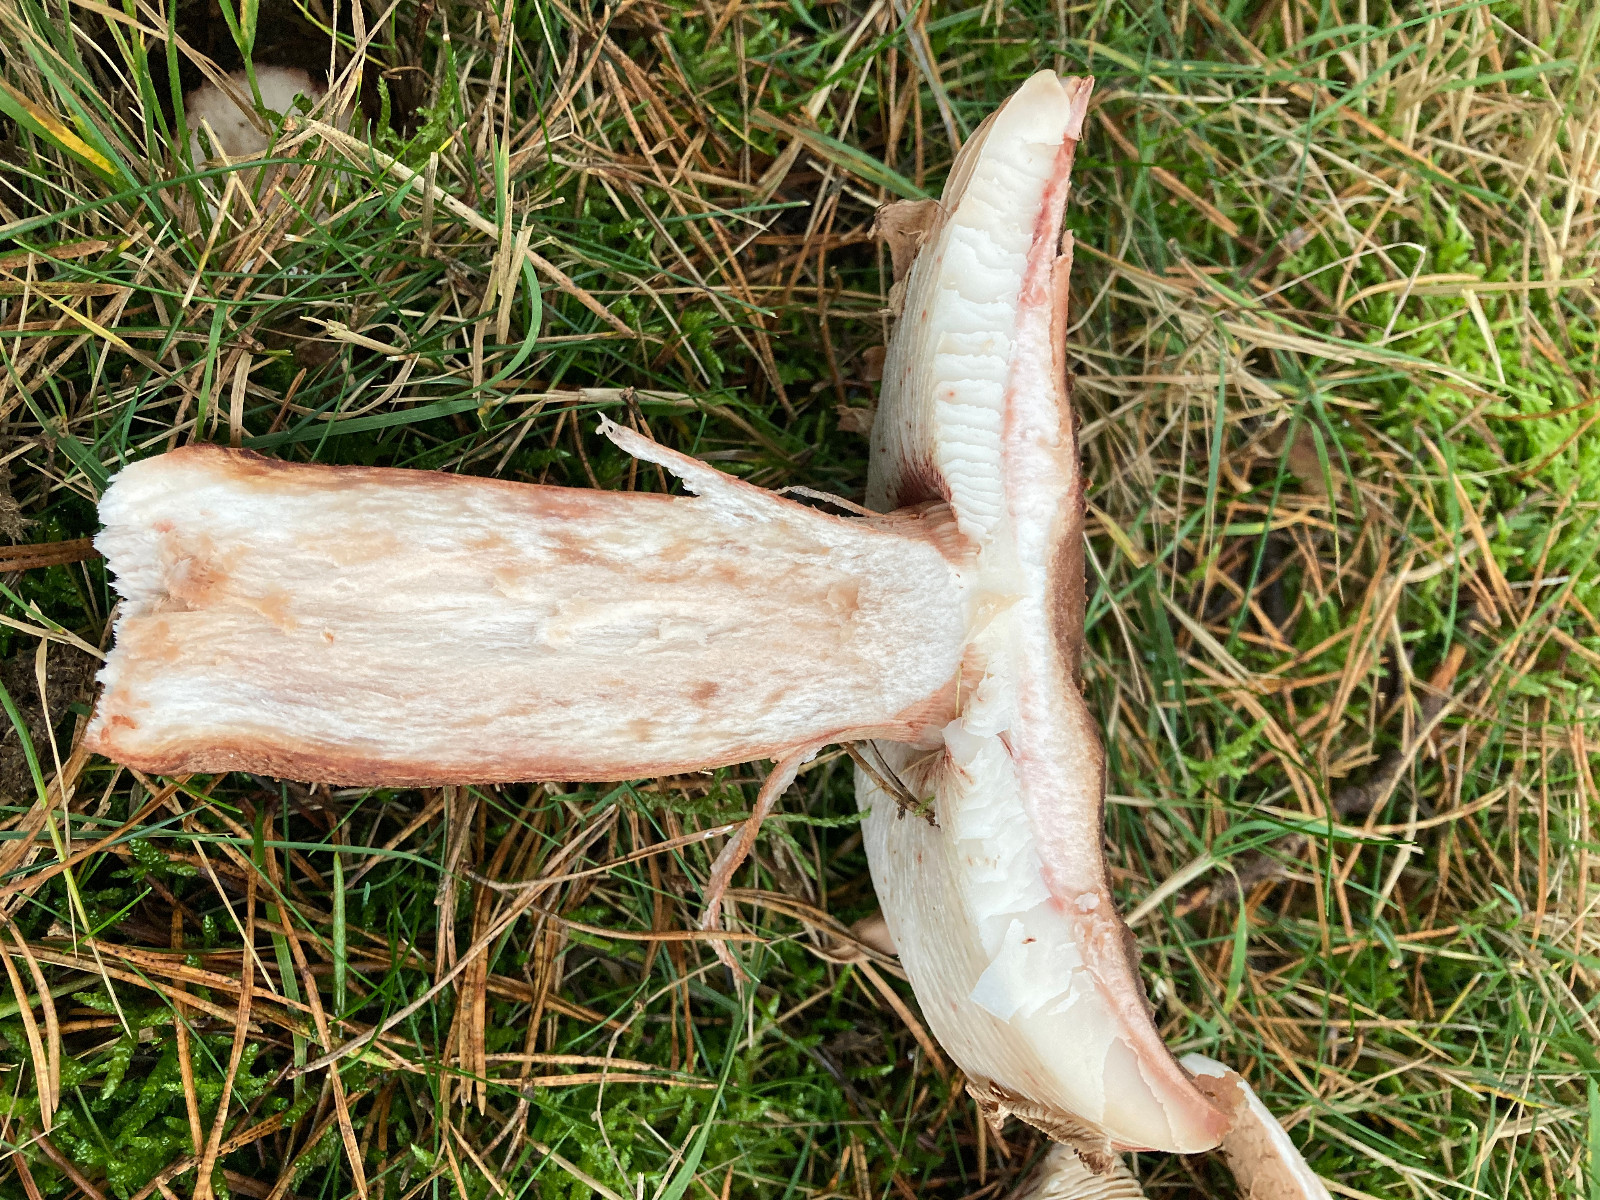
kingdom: Fungi
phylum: Basidiomycota
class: Agaricomycetes
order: Agaricales
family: Amanitaceae
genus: Amanita
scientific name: Amanita rubescens
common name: rødmende fluesvamp
